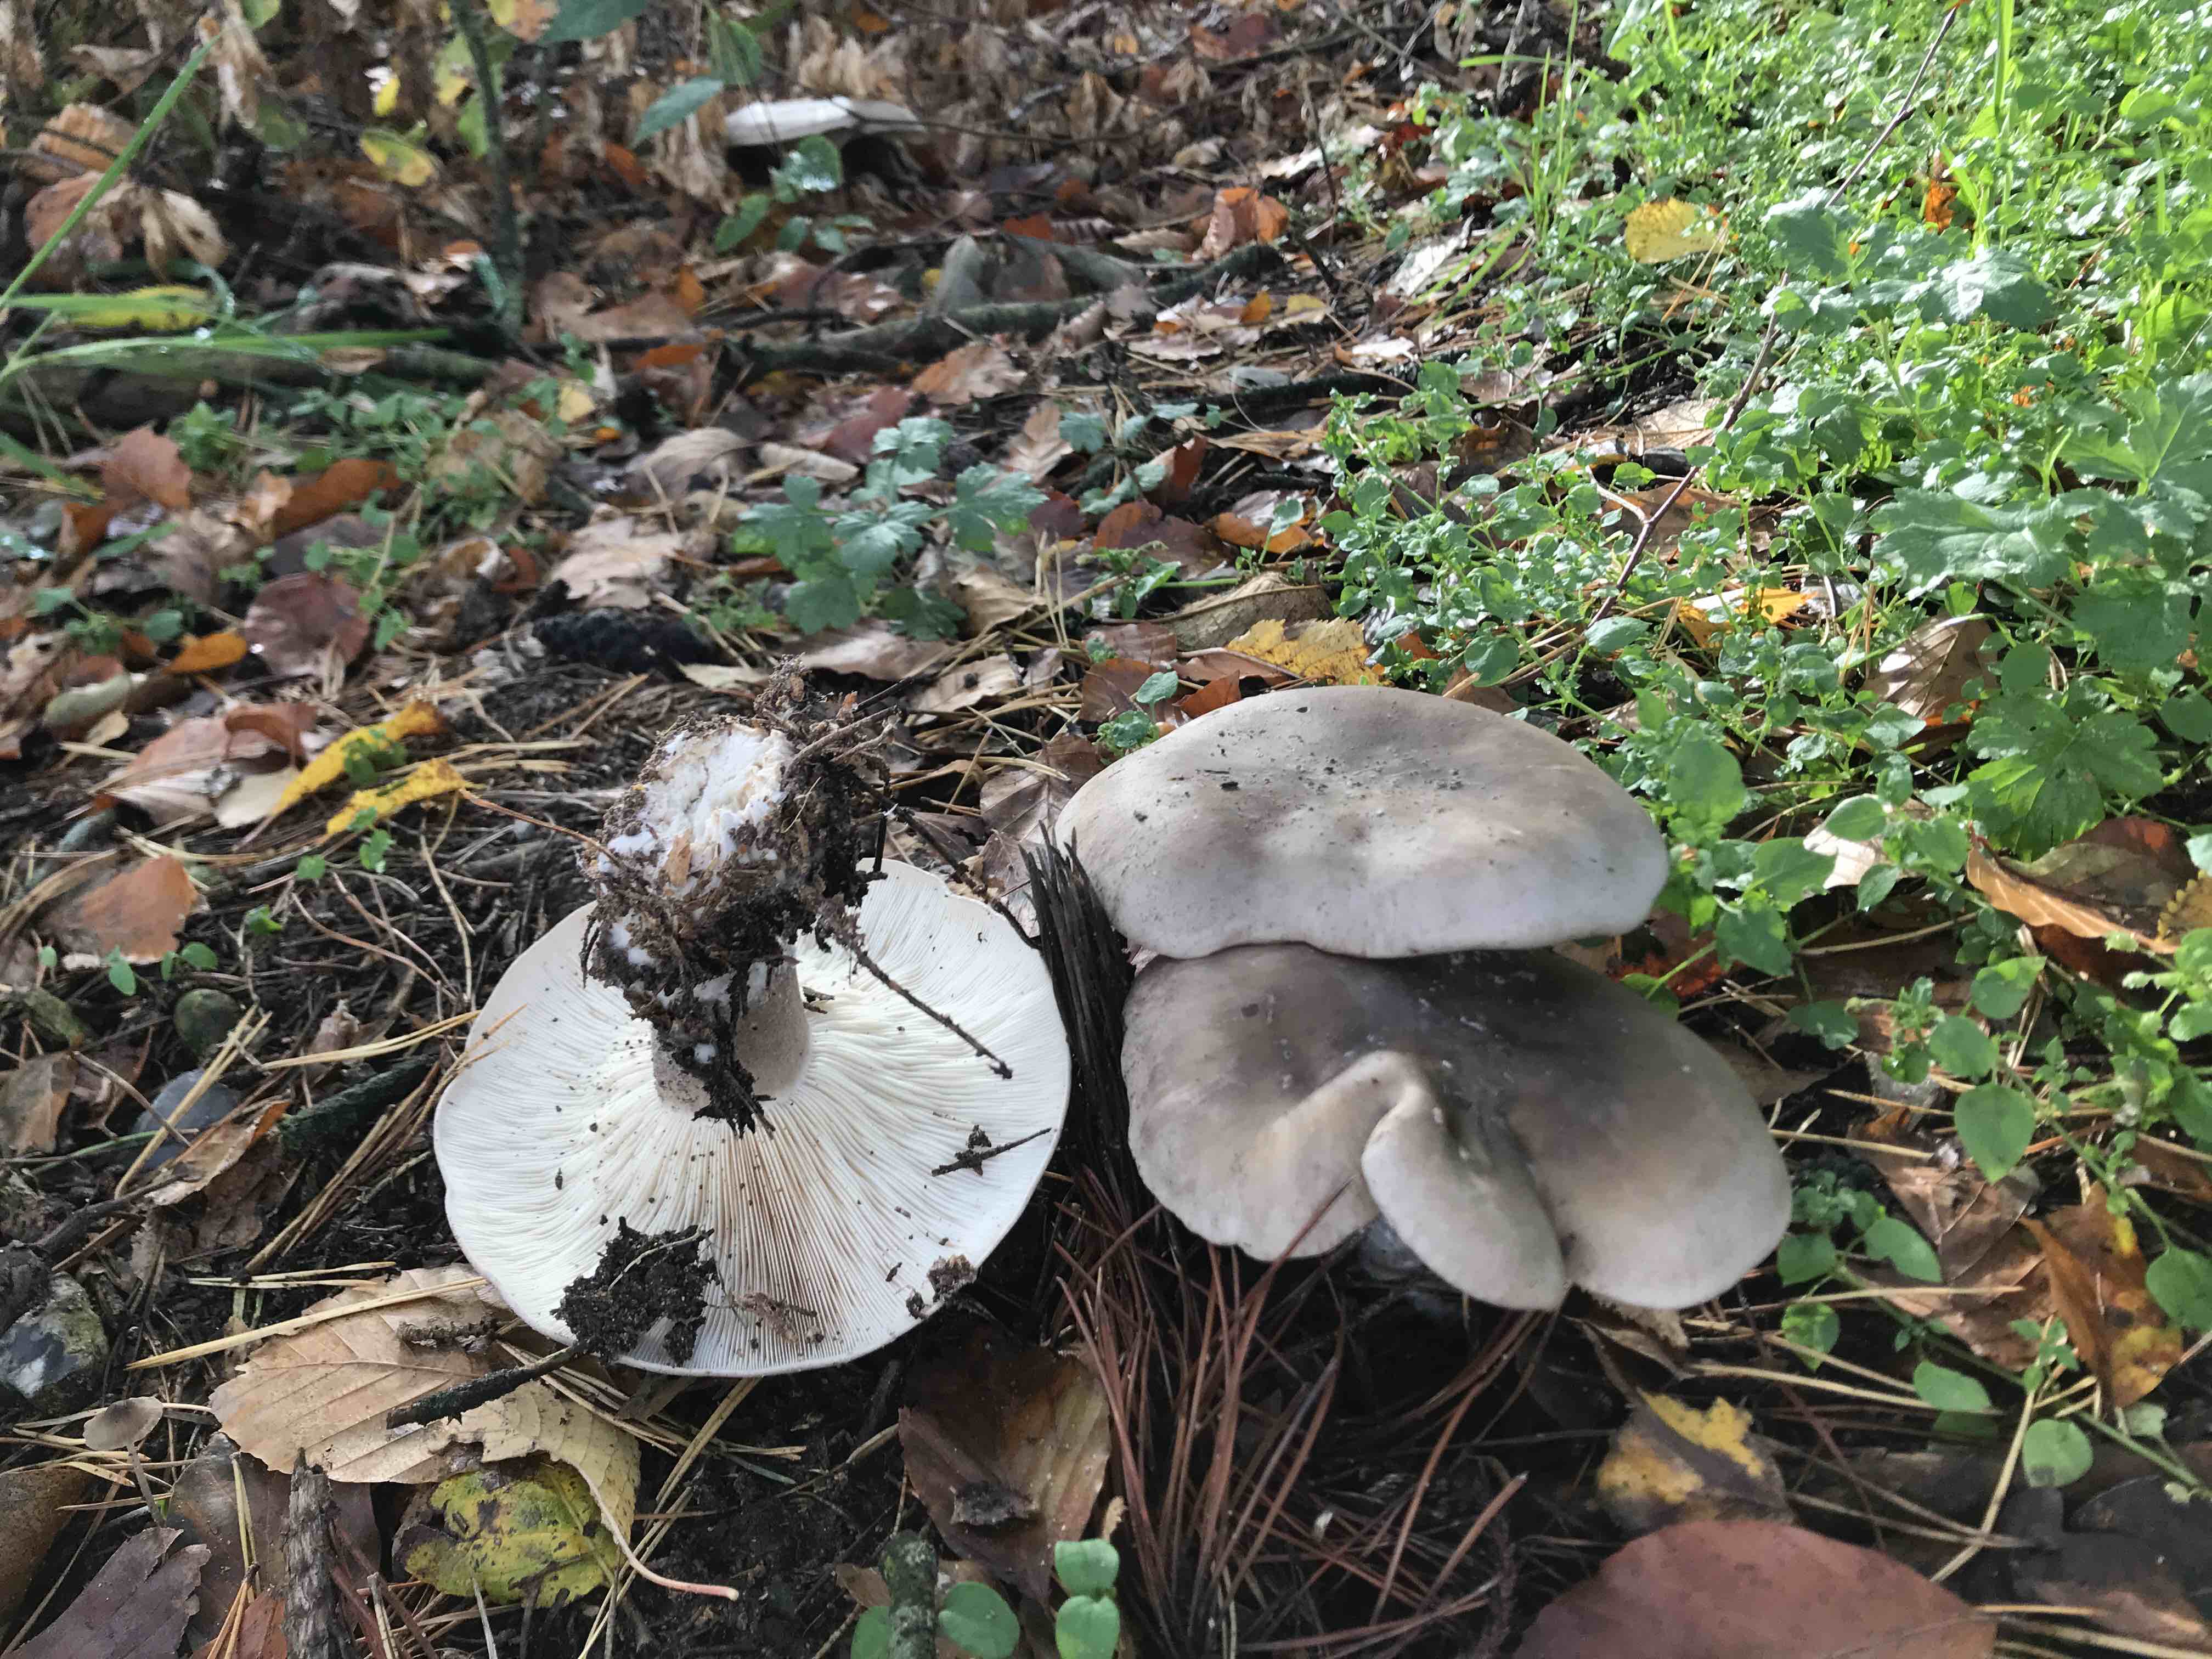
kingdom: Fungi
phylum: Basidiomycota
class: Agaricomycetes
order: Agaricales
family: Tricholomataceae
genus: Clitocybe
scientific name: Clitocybe nebularis
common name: tåge-tragthat
